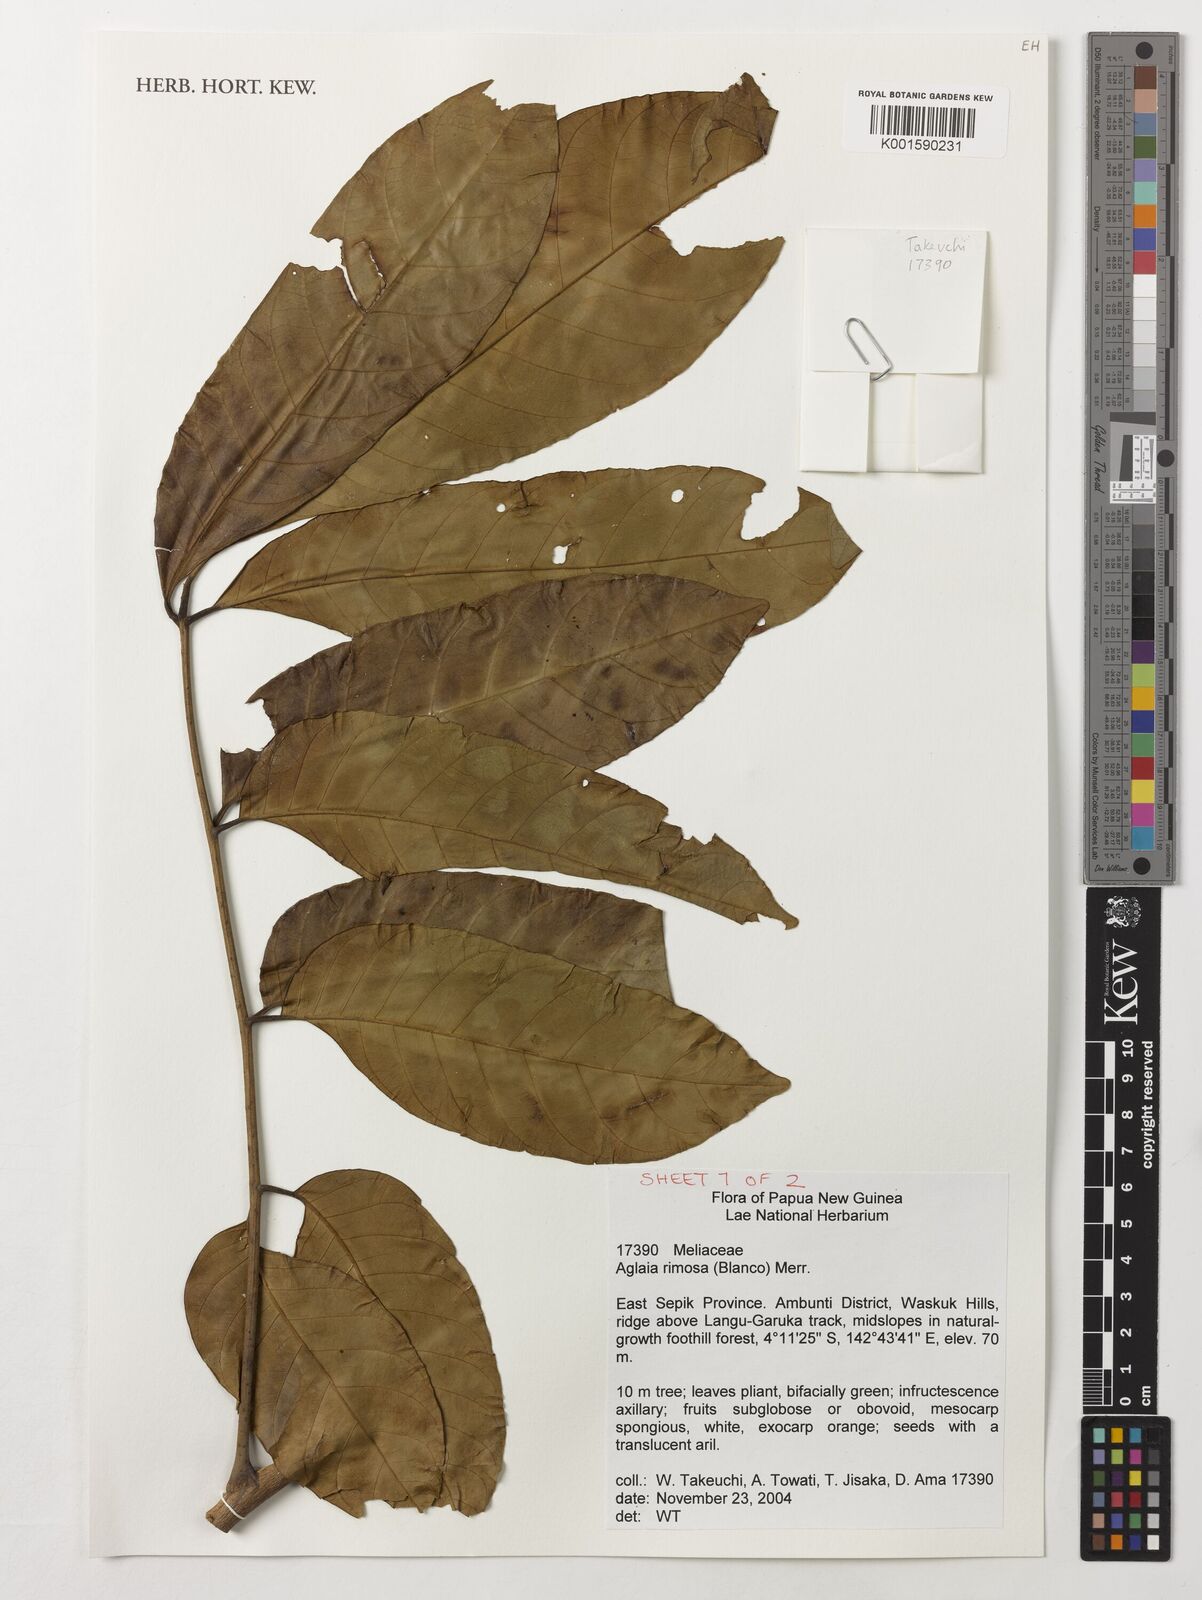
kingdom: Plantae
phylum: Tracheophyta
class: Magnoliopsida
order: Sapindales
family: Meliaceae
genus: Aglaia
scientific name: Aglaia rimosa
